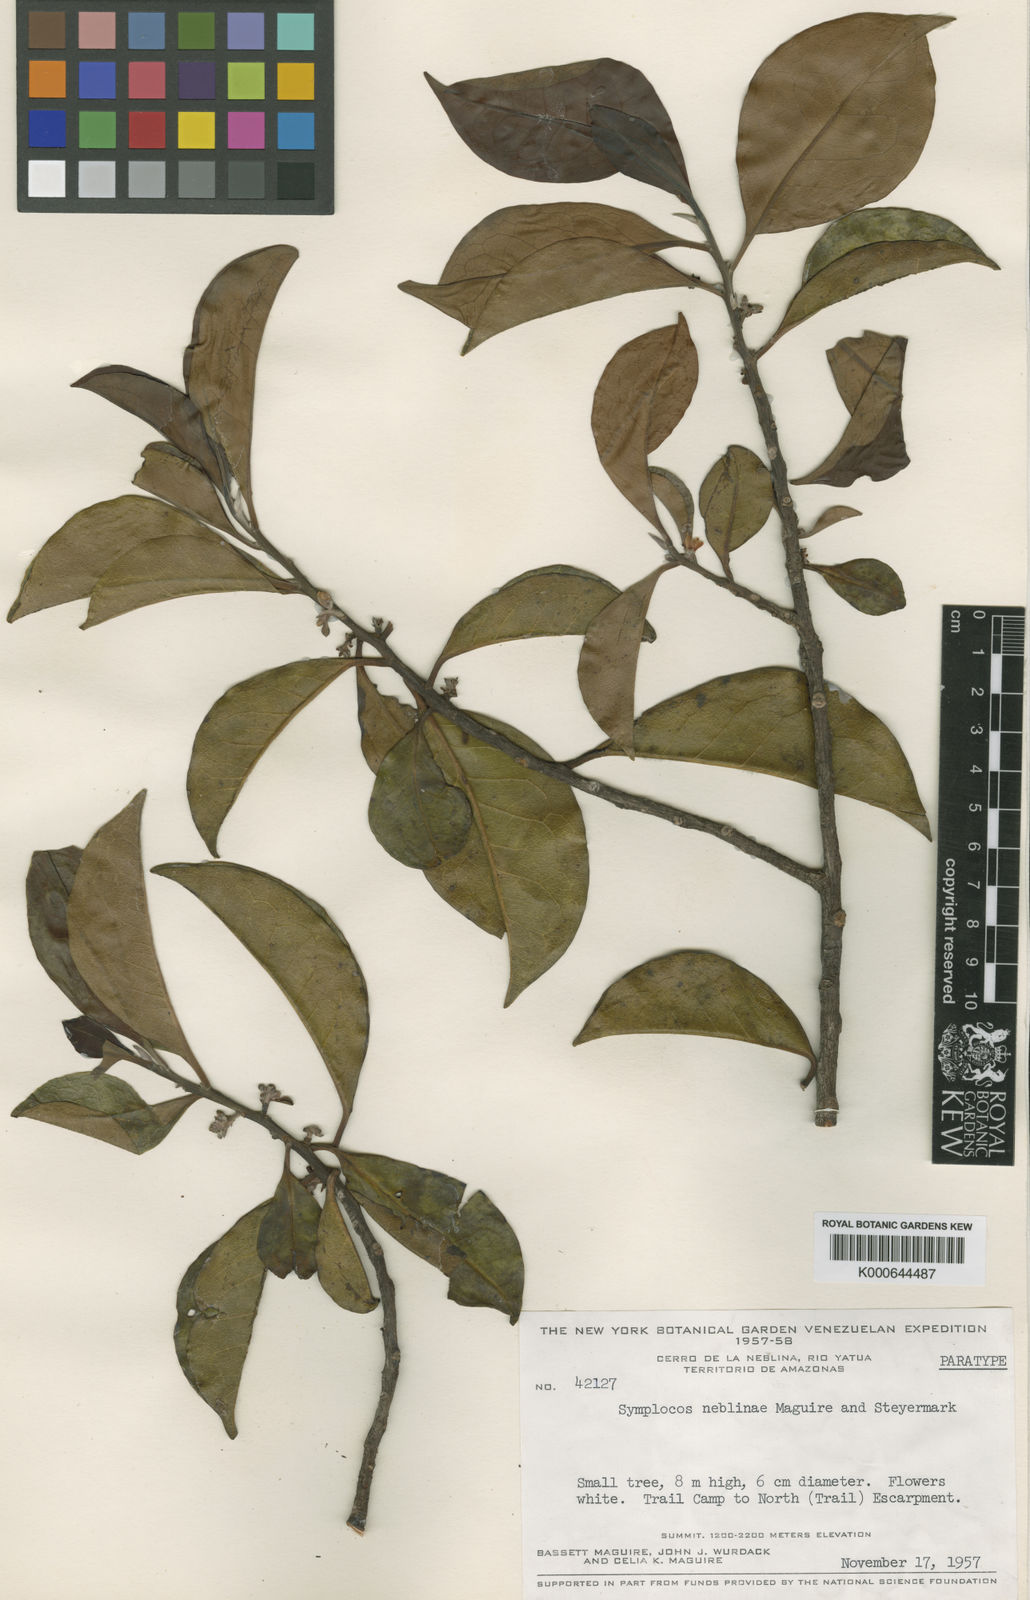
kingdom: Plantae
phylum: Tracheophyta
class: Magnoliopsida
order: Ericales
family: Symplocaceae
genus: Symplocos
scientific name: Symplocos neblinae
